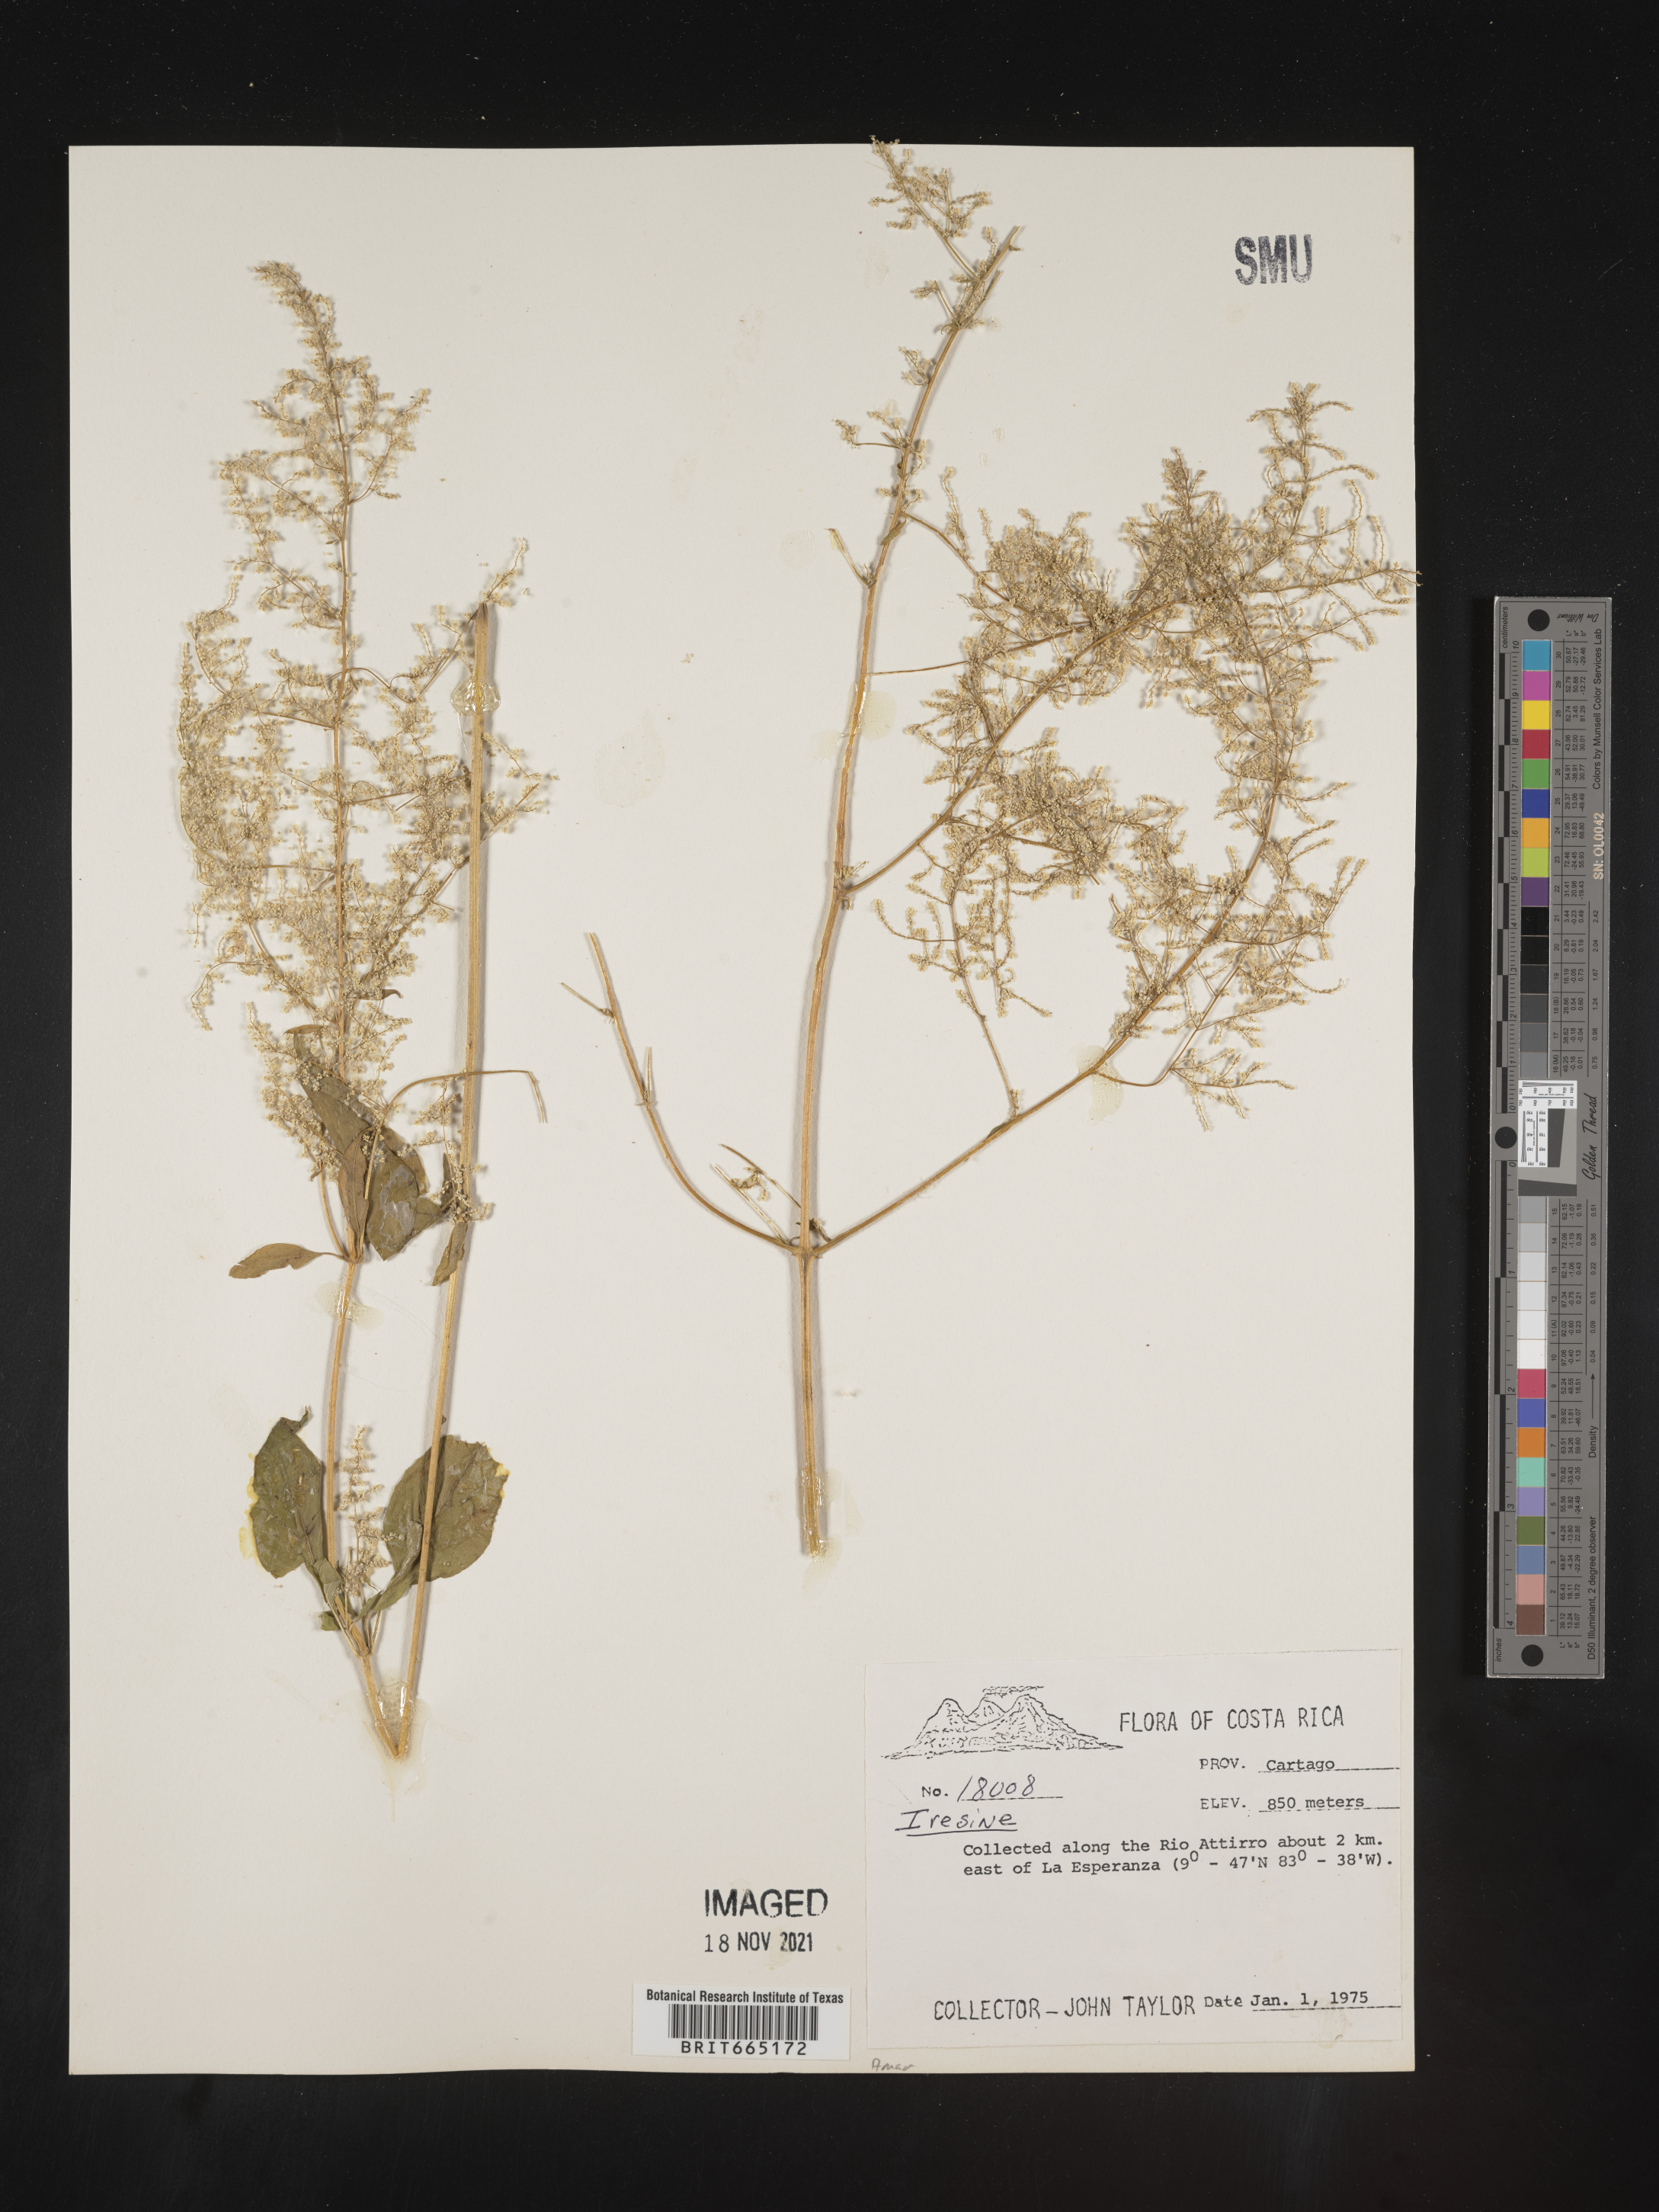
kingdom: Plantae
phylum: Tracheophyta
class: Magnoliopsida
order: Caryophyllales
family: Amaranthaceae
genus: Iresine
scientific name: Iresine
